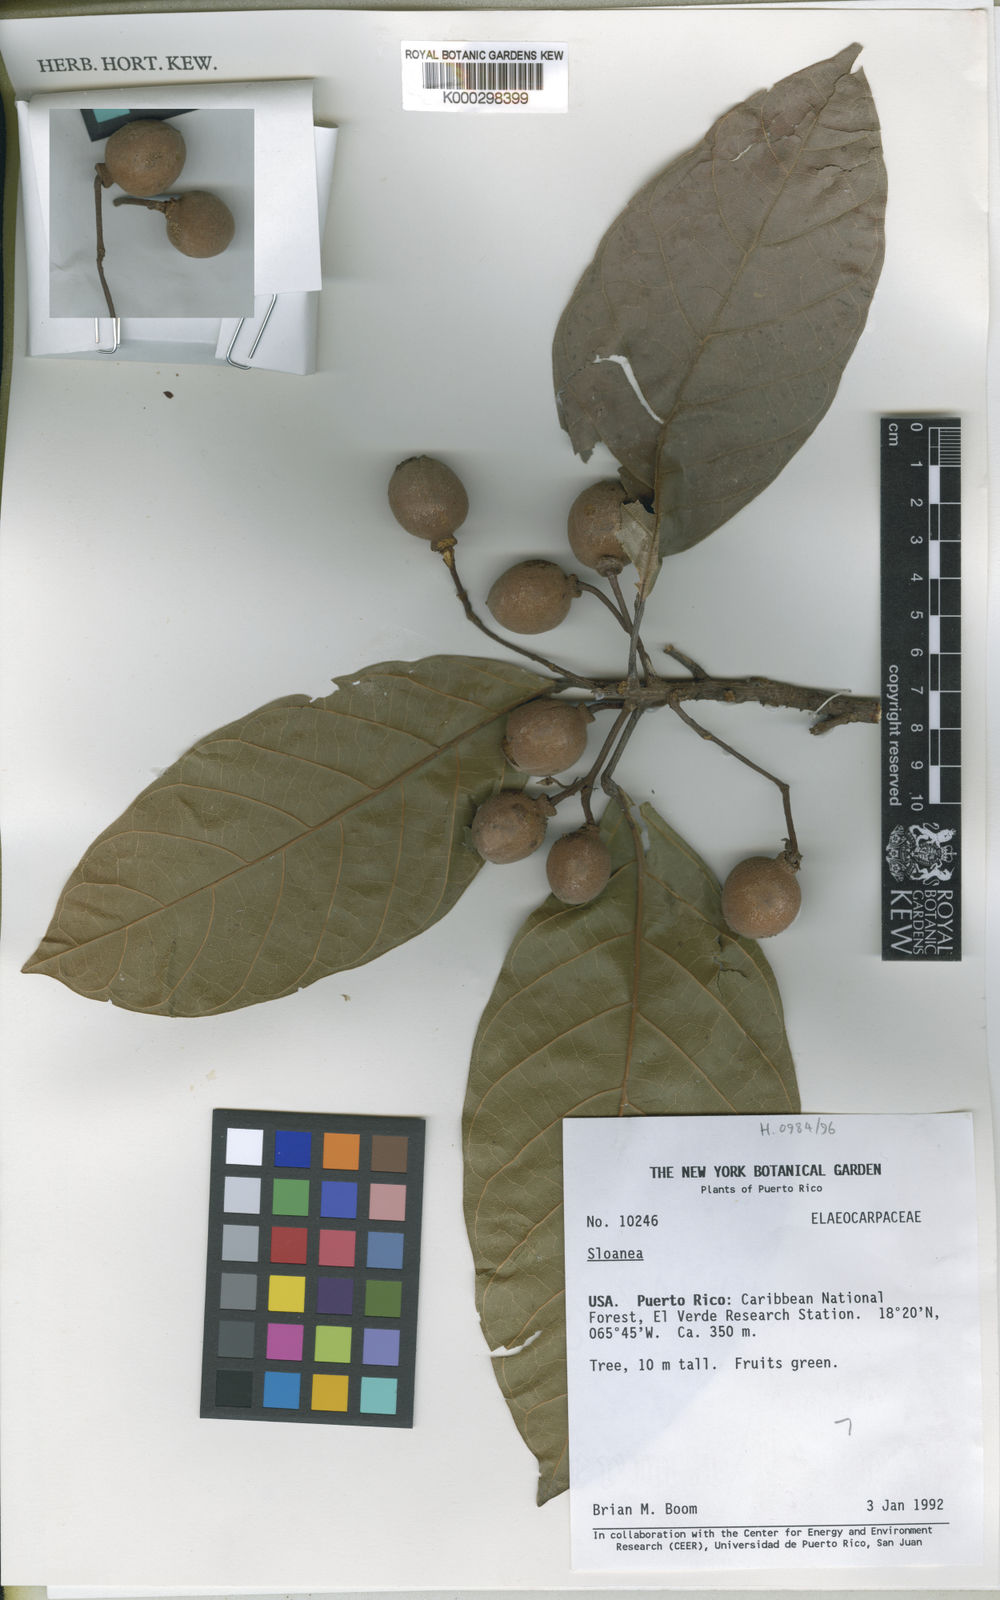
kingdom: Plantae
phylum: Tracheophyta
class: Magnoliopsida
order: Oxalidales
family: Elaeocarpaceae
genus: Sloanea
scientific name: Sloanea berteroana
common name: Bullwood
